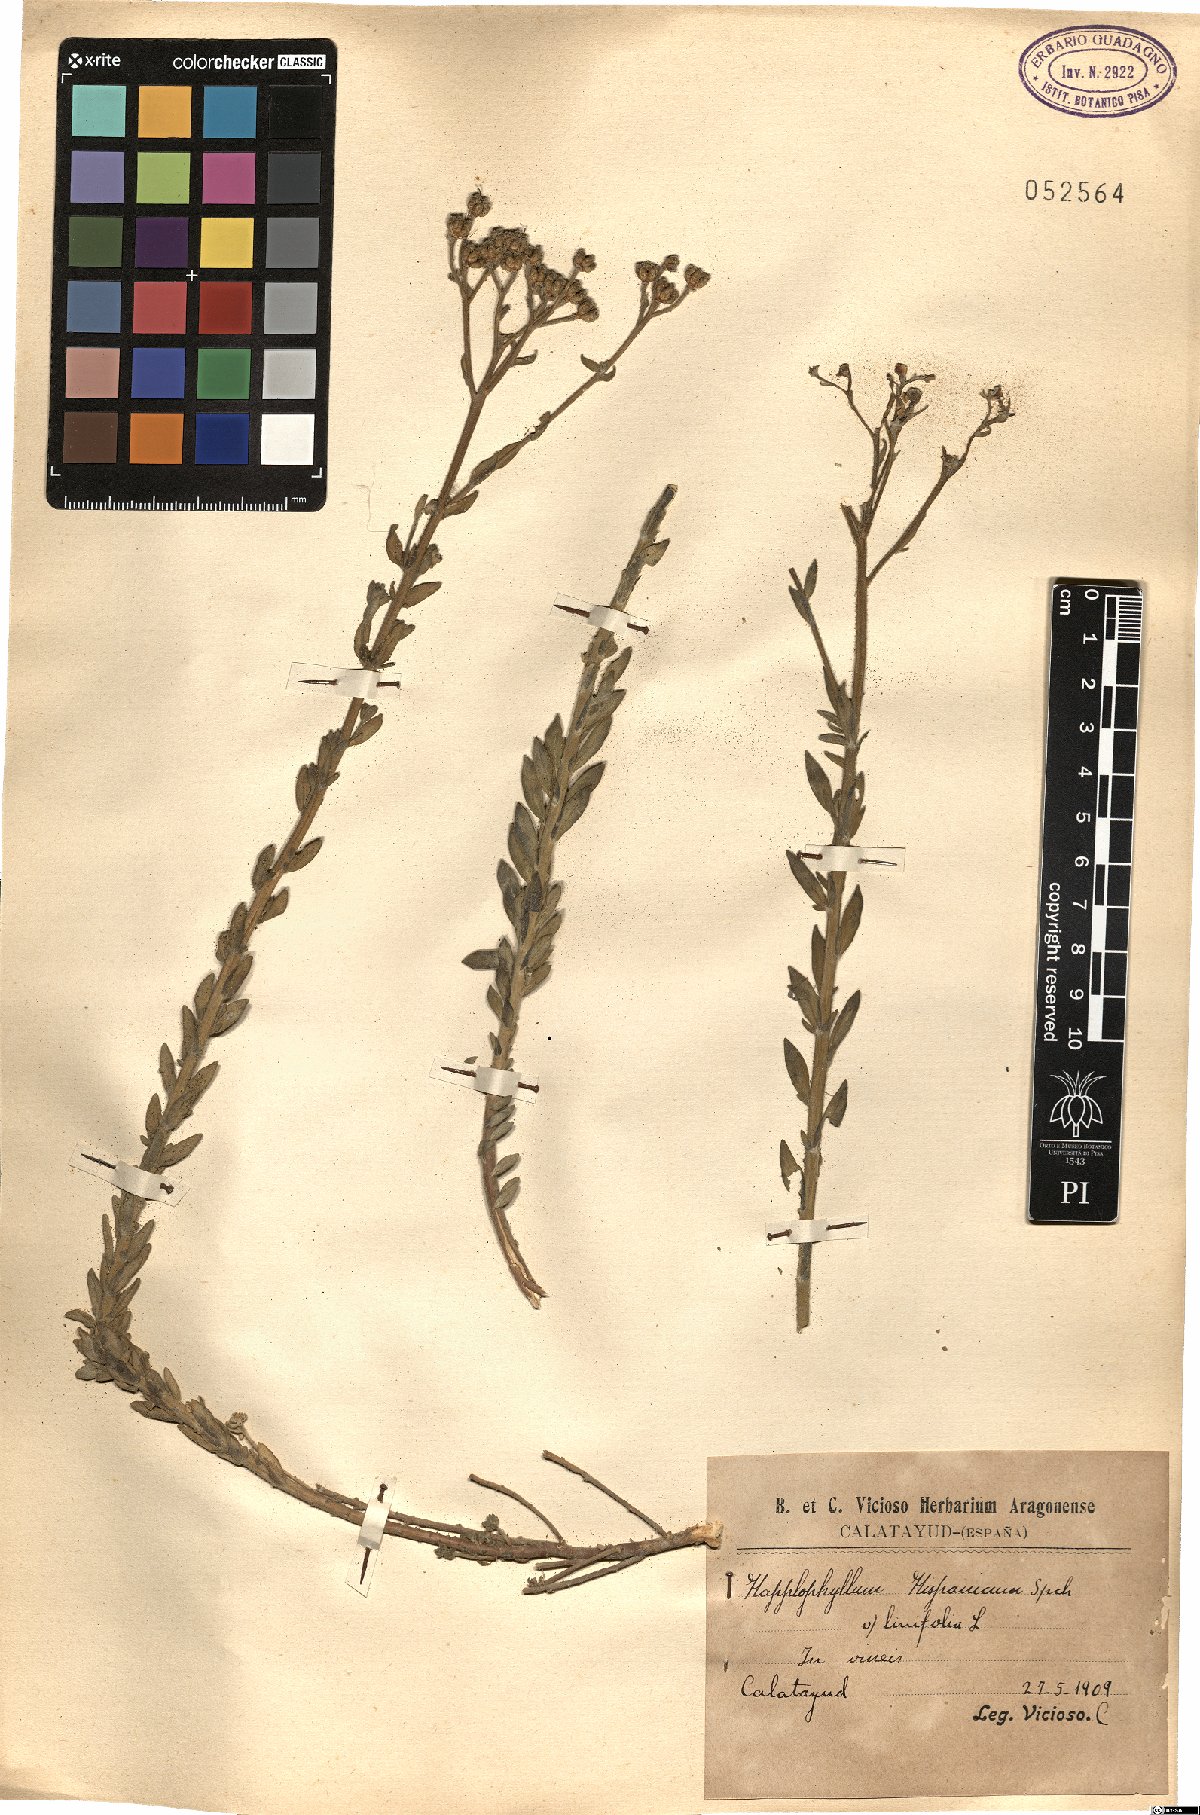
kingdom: Plantae
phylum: Tracheophyta
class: Magnoliopsida
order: Sapindales
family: Rutaceae
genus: Haplophyllum
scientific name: Haplophyllum
